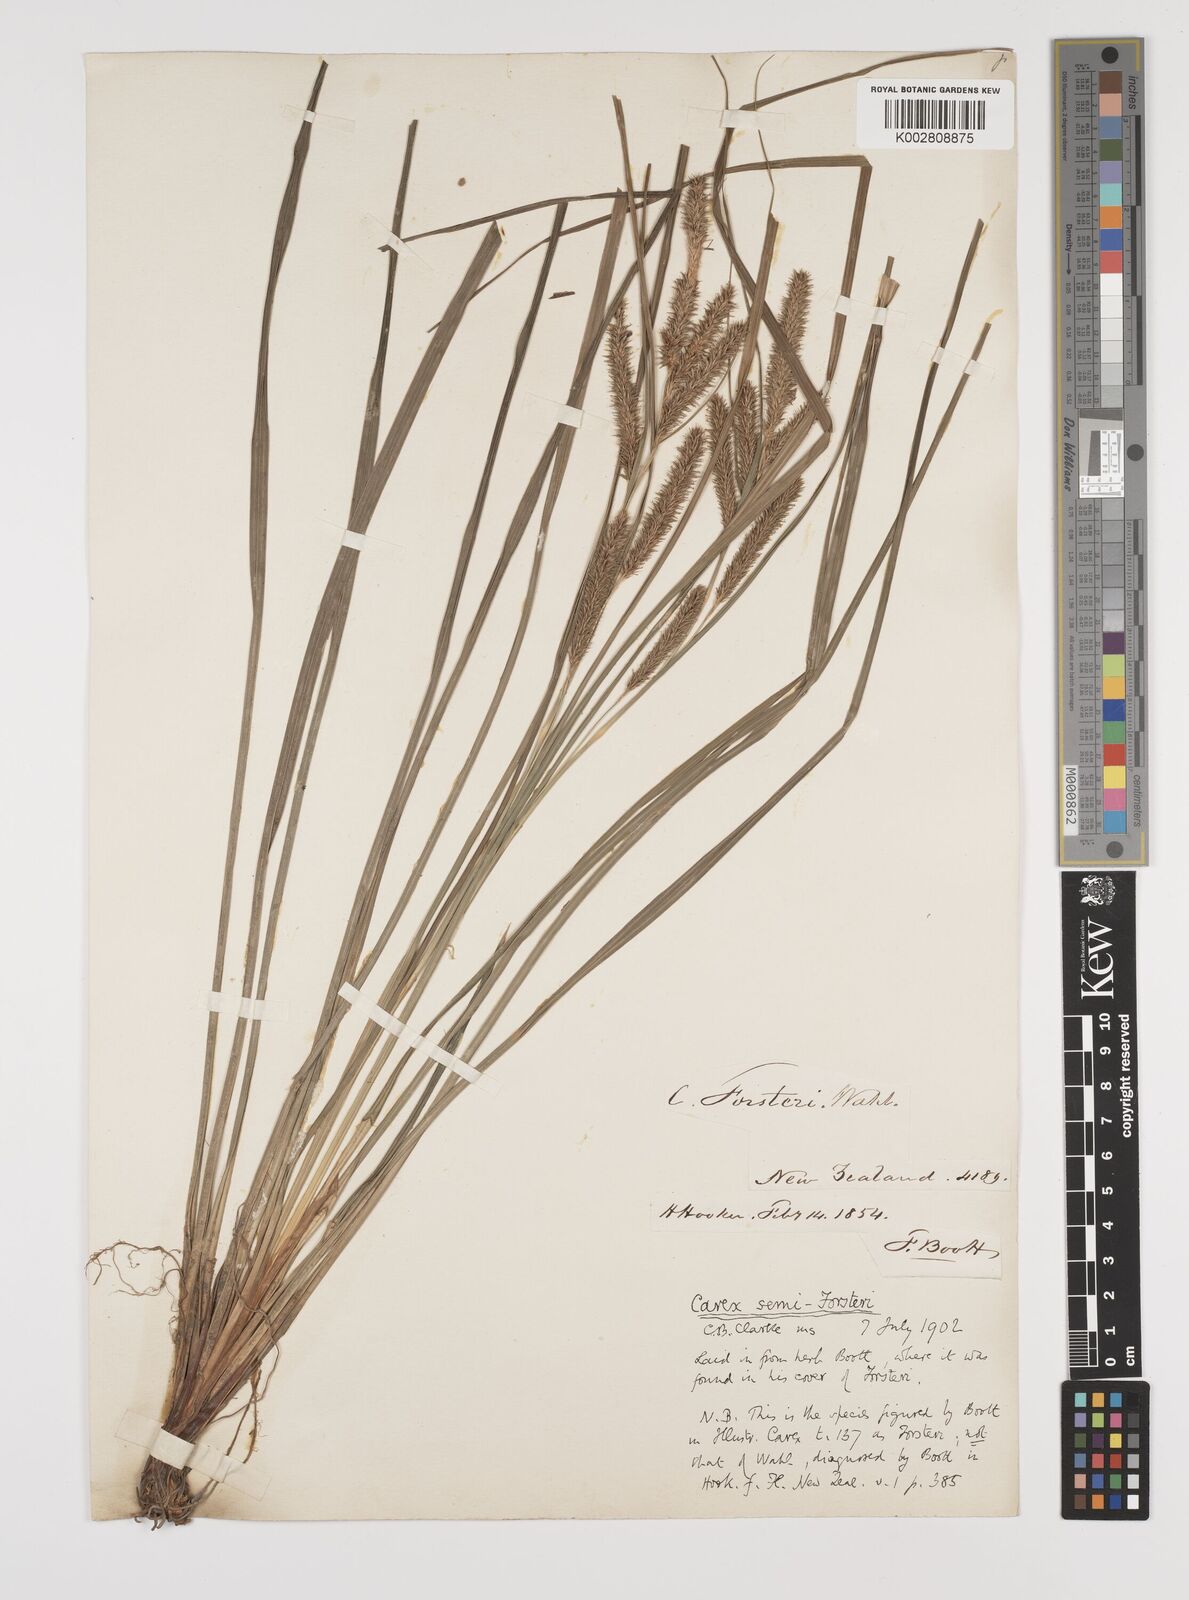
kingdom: Plantae
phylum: Tracheophyta
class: Liliopsida
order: Poales
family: Cyperaceae
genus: Carex
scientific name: Carex forsteri
